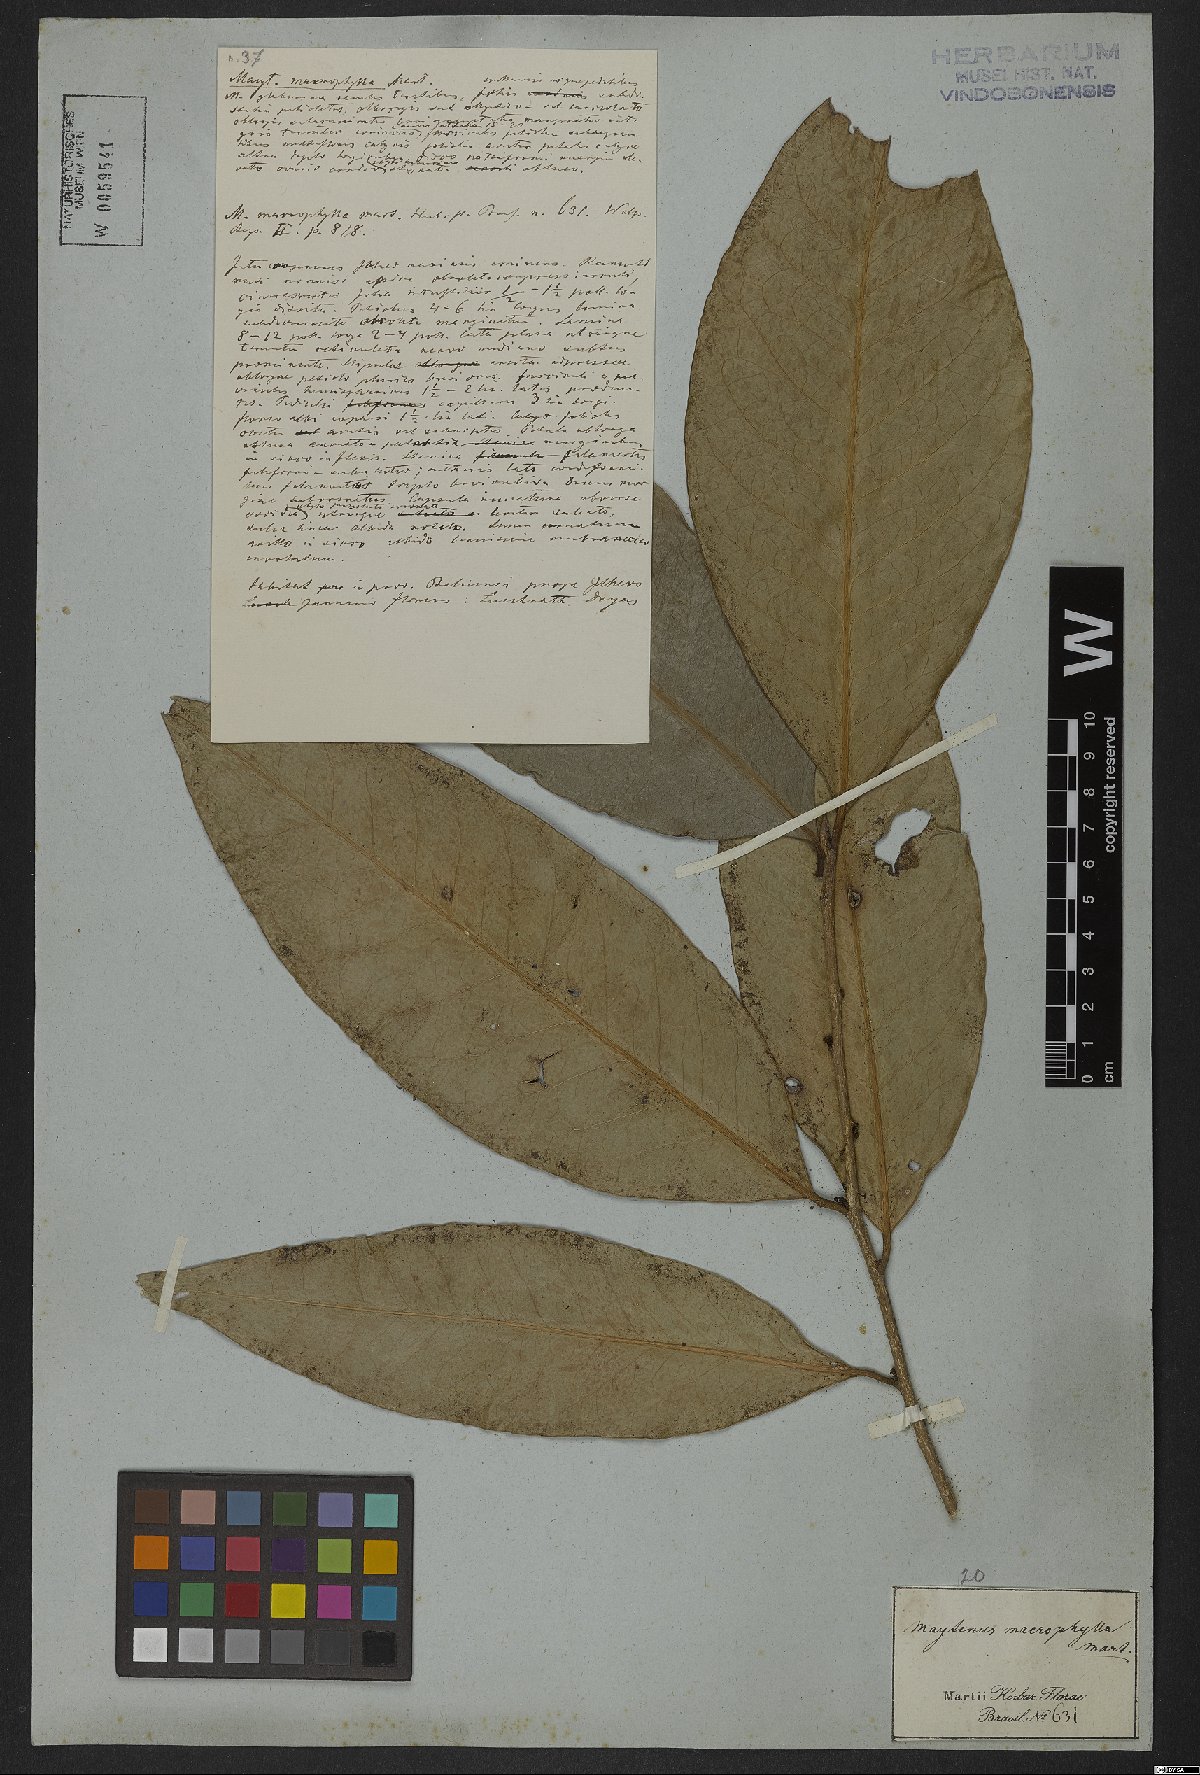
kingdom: Plantae
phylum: Tracheophyta
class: Magnoliopsida
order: Celastrales
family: Celastraceae
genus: Monteverdia
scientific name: Monteverdia macrophylla
